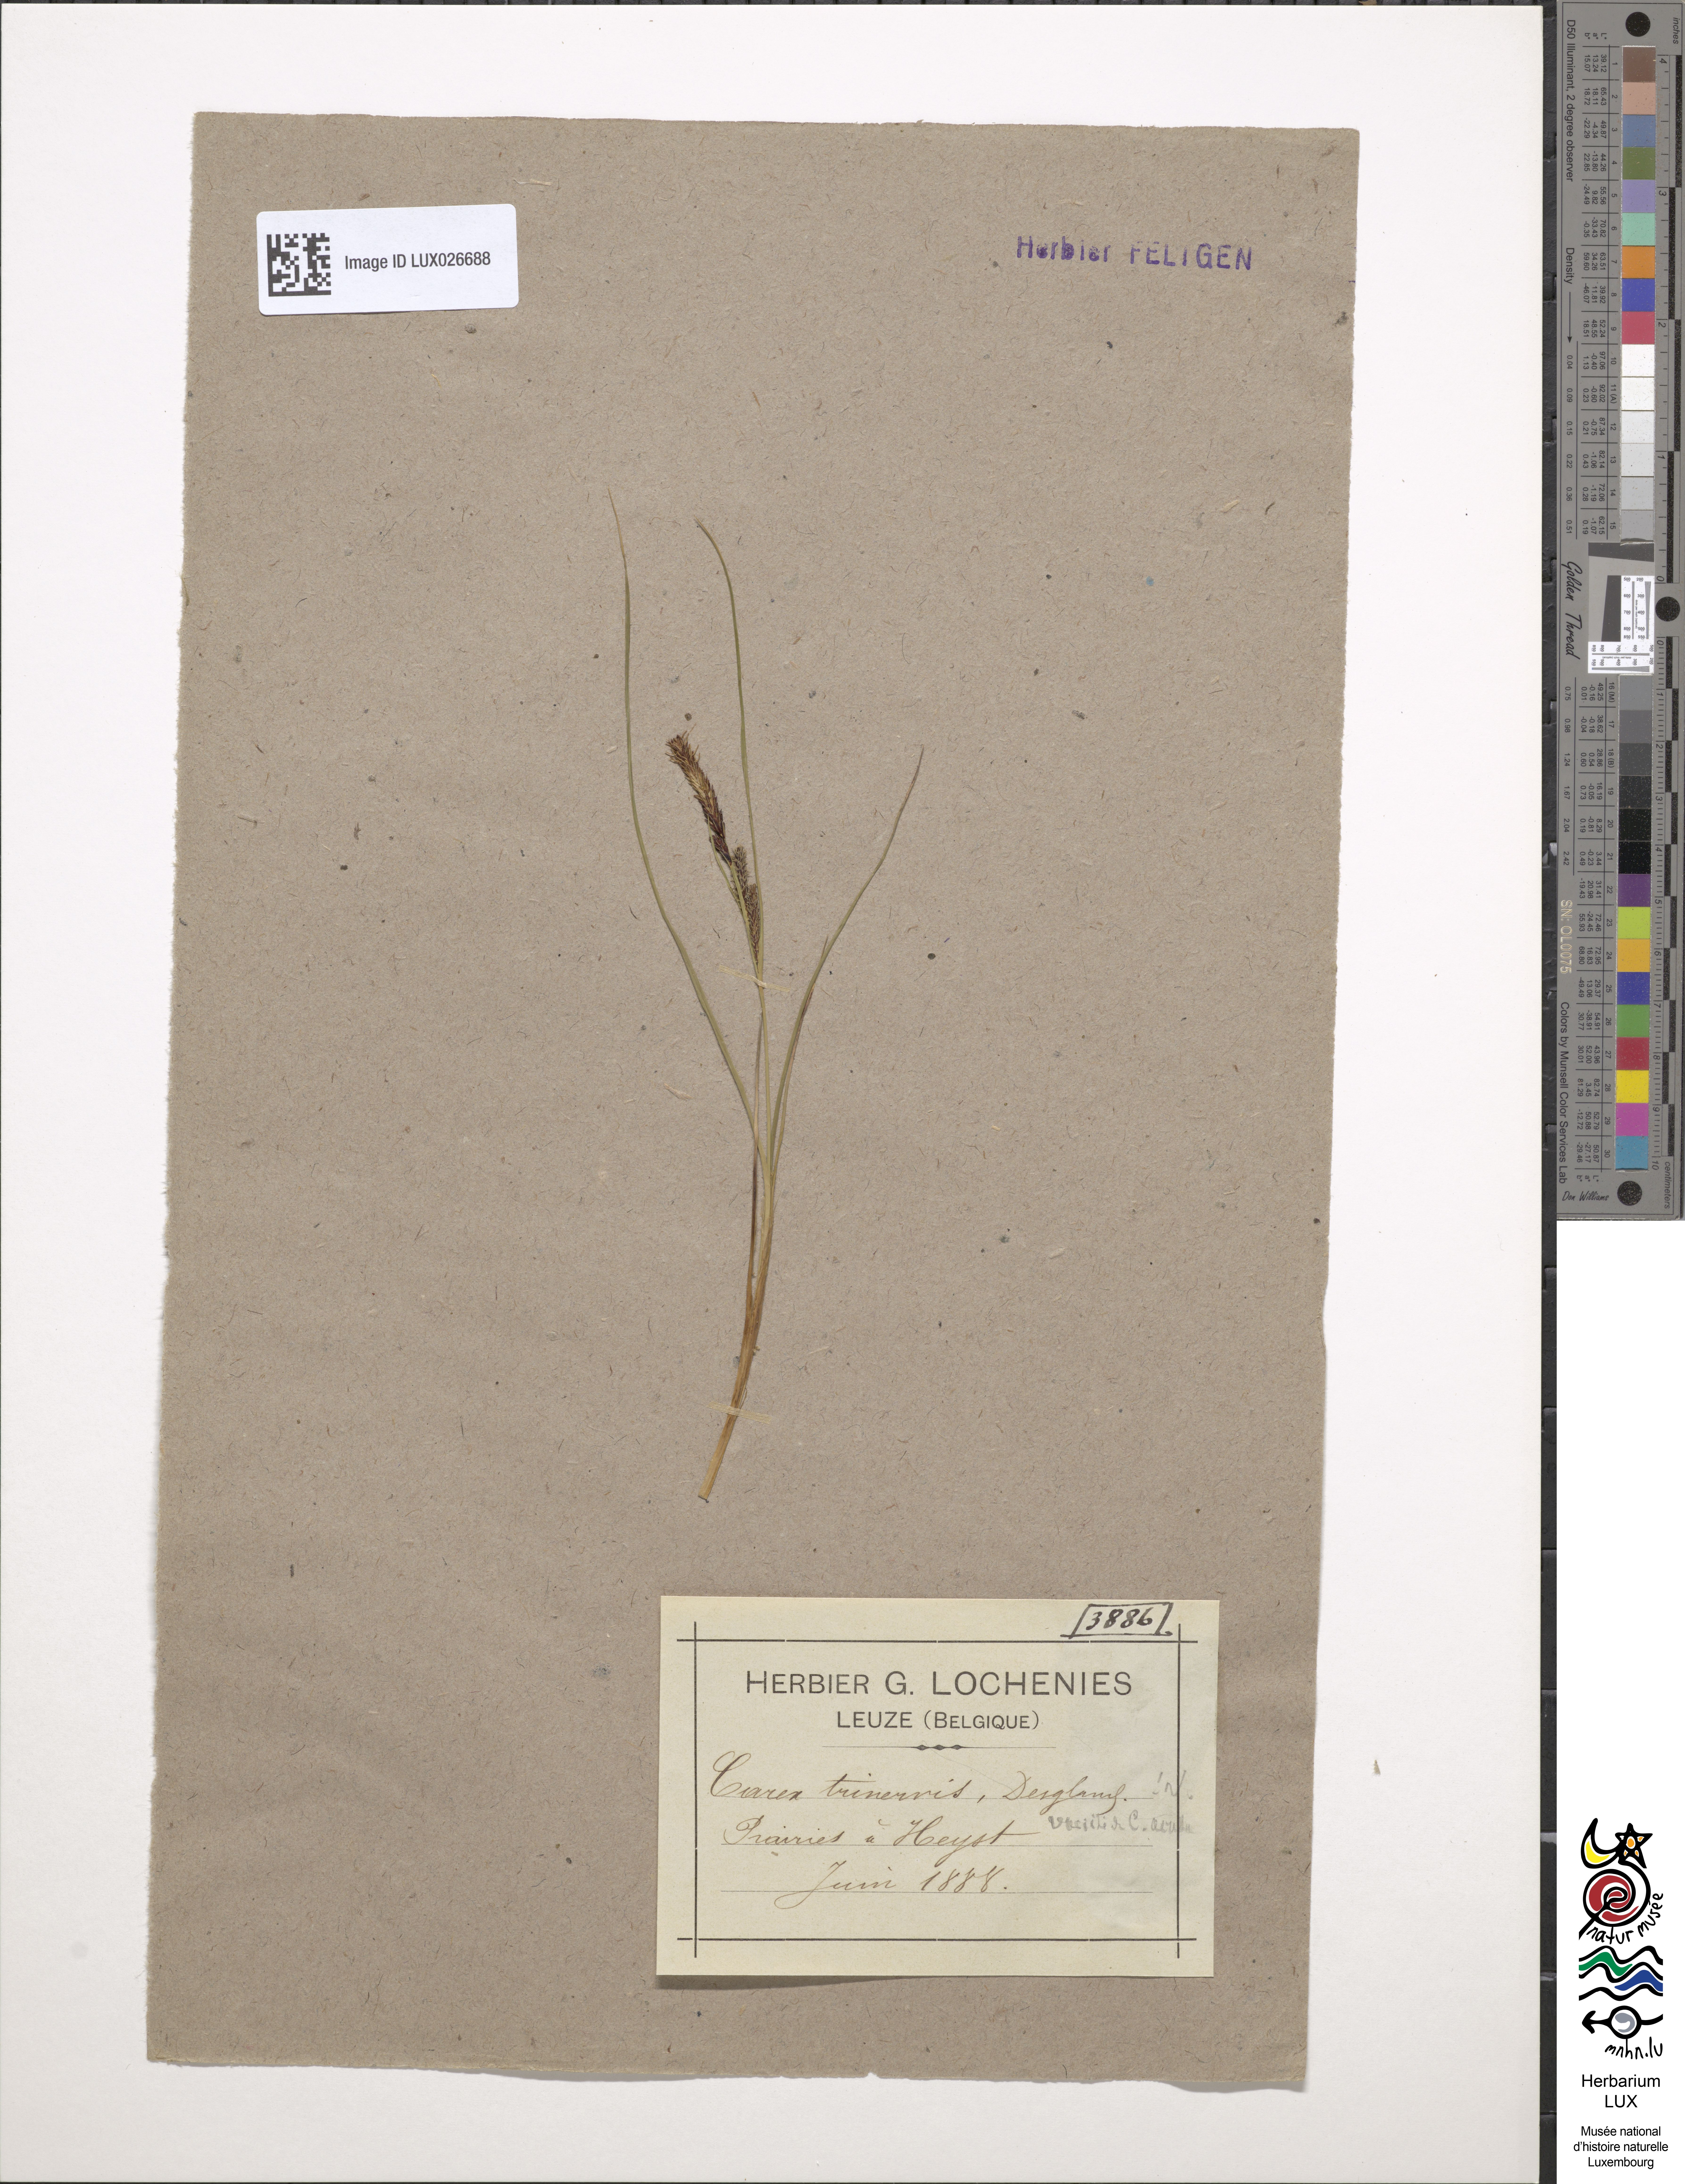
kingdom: Plantae
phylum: Tracheophyta
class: Liliopsida
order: Poales
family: Cyperaceae
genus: Carex
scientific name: Carex
